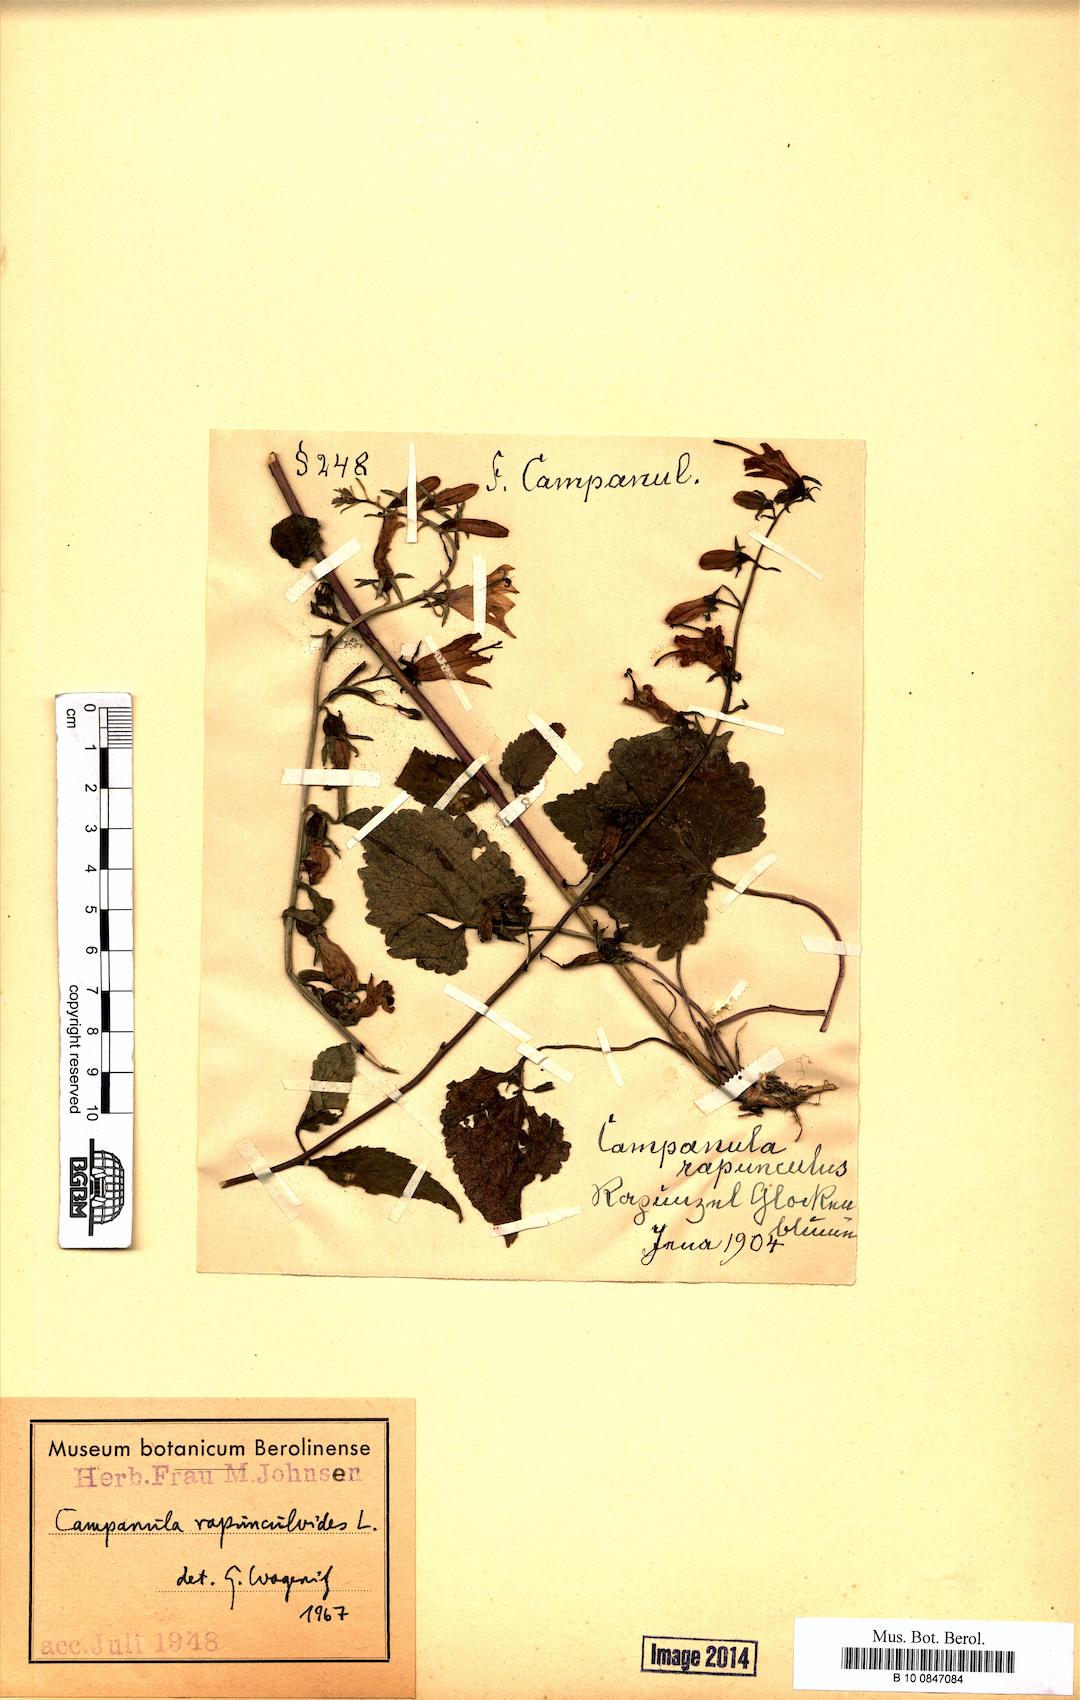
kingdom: Plantae
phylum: Tracheophyta
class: Magnoliopsida
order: Asterales
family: Campanulaceae
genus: Campanula
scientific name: Campanula rapunculoides
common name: Creeping bellflower
